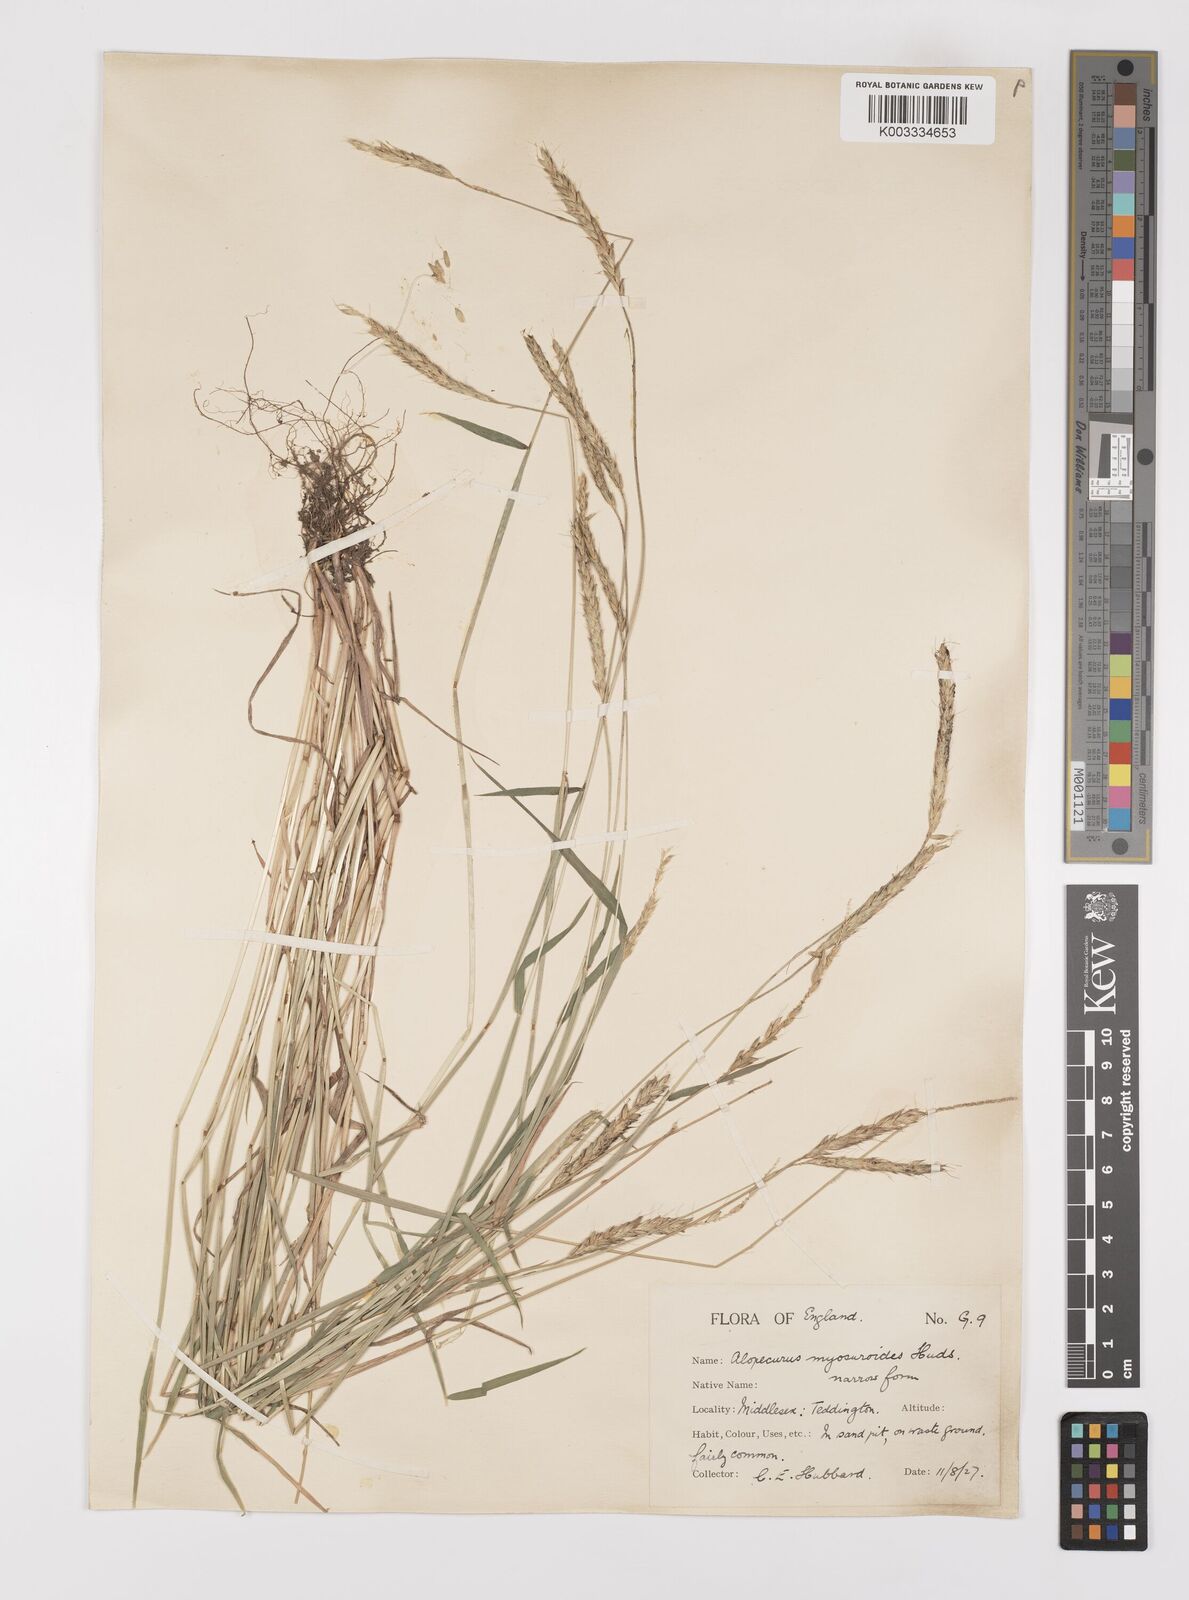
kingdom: Plantae
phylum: Tracheophyta
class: Liliopsida
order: Poales
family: Poaceae
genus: Alopecurus
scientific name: Alopecurus myosuroides
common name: Black-grass
